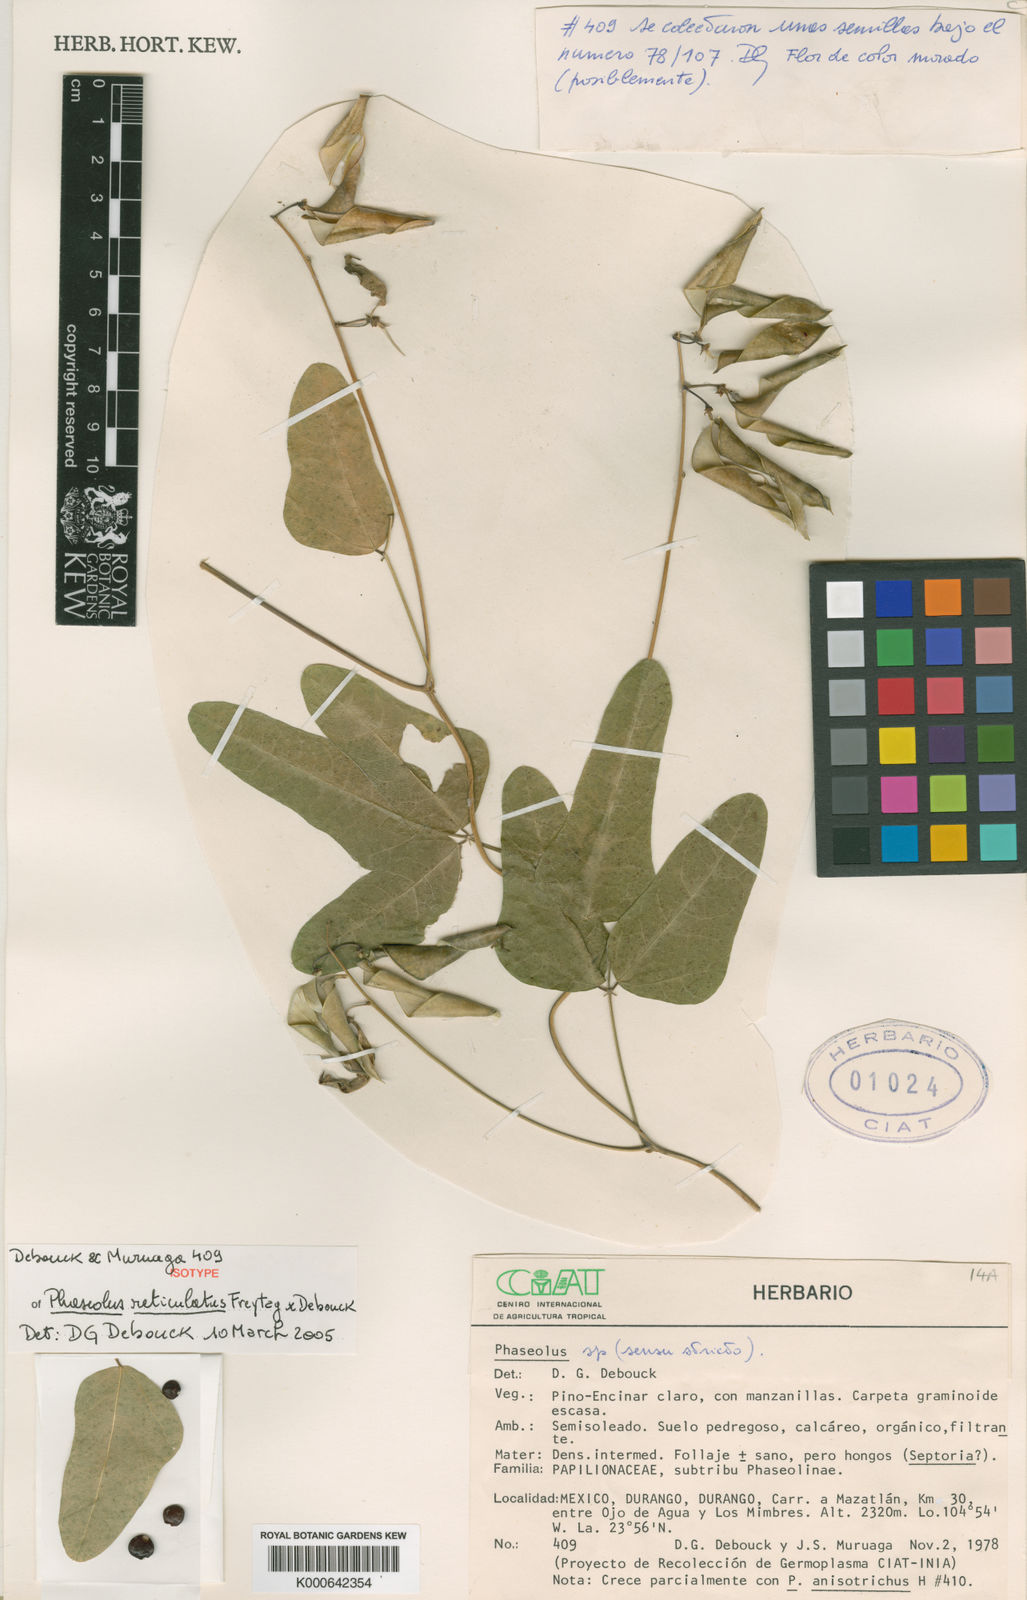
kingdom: Plantae
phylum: Tracheophyta
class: Magnoliopsida
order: Fabales
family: Fabaceae
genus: Phaseolus
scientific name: Phaseolus reticulatus
